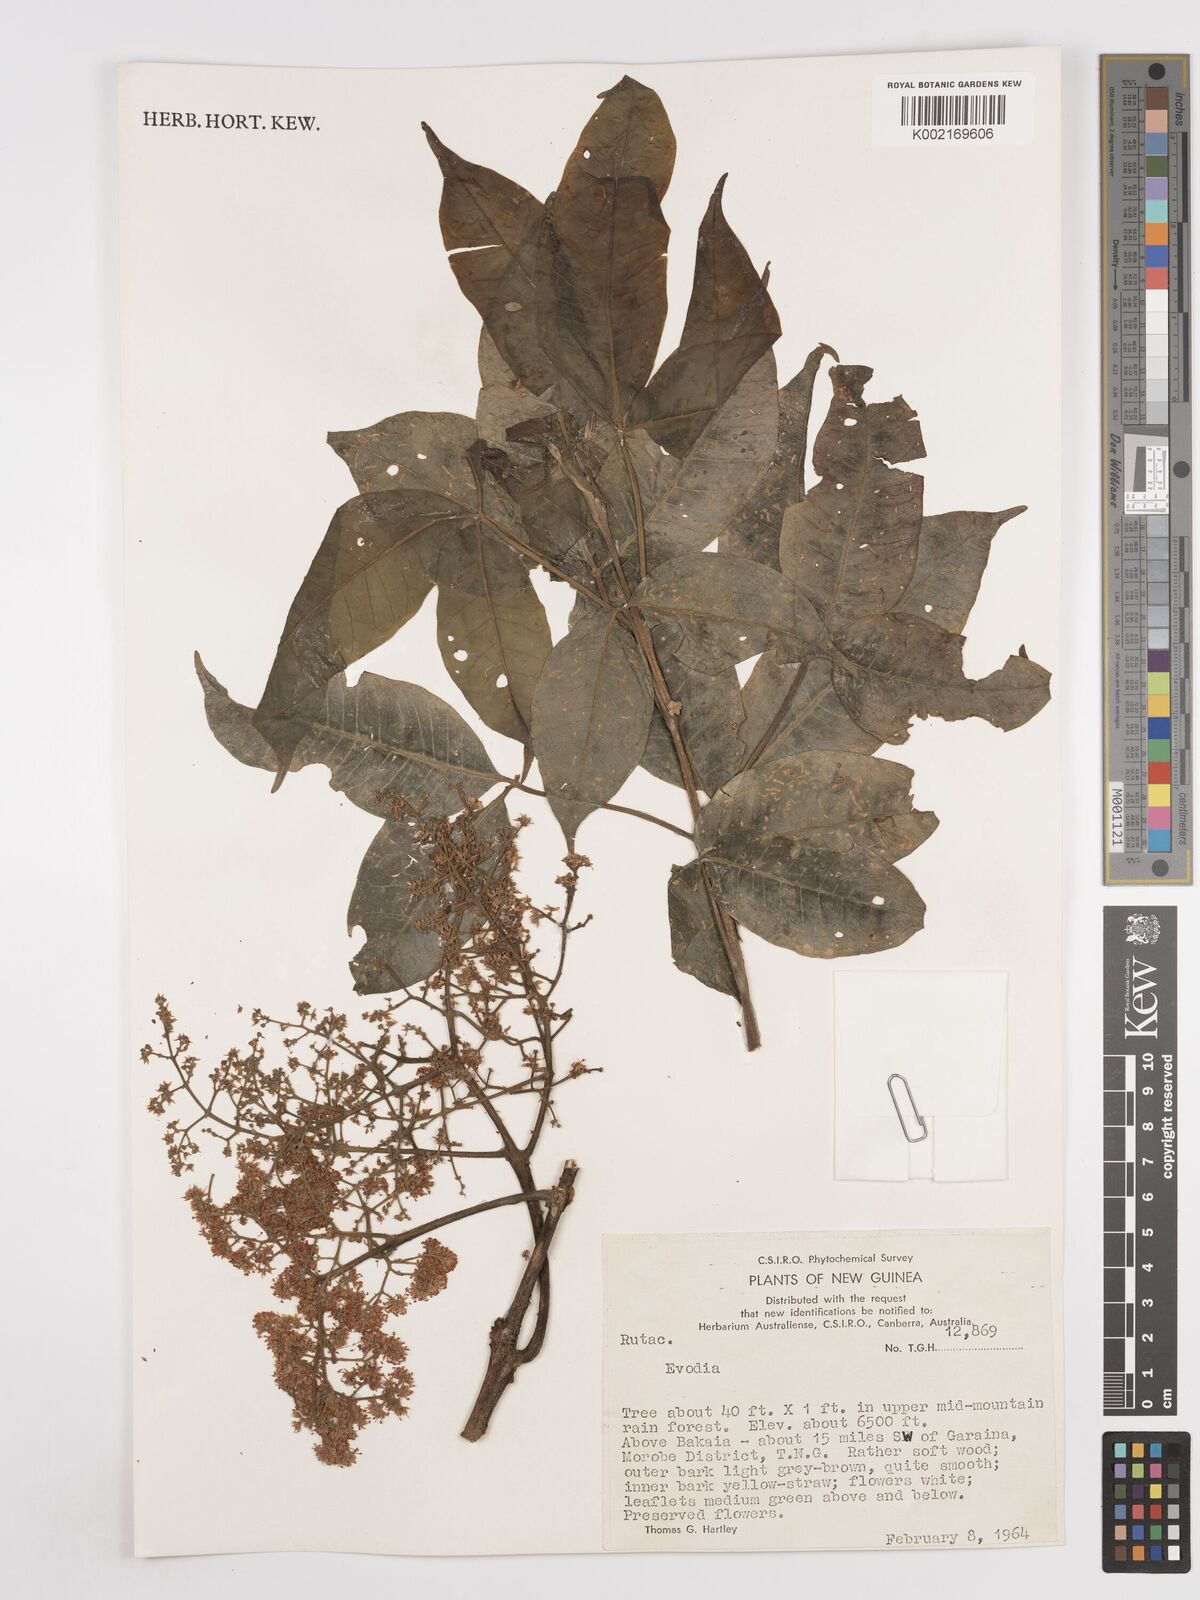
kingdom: Plantae
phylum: Tracheophyta
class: Magnoliopsida
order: Sapindales
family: Rutaceae
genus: Euodia
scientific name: Euodia
